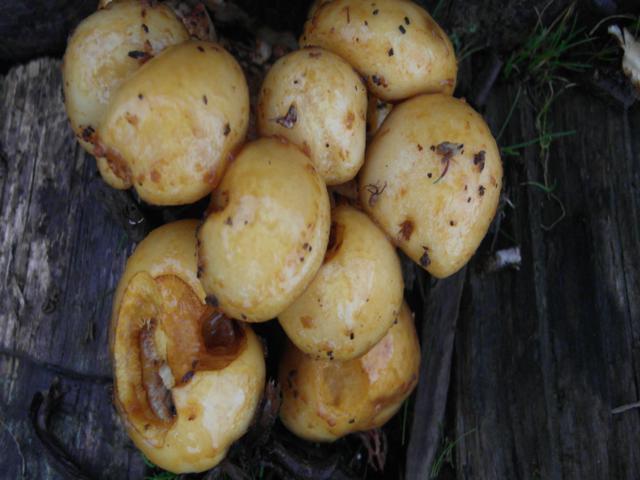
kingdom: Fungi
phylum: Basidiomycota
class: Agaricomycetes
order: Agaricales
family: Strophariaceae
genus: Pholiota
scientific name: Pholiota limonella
